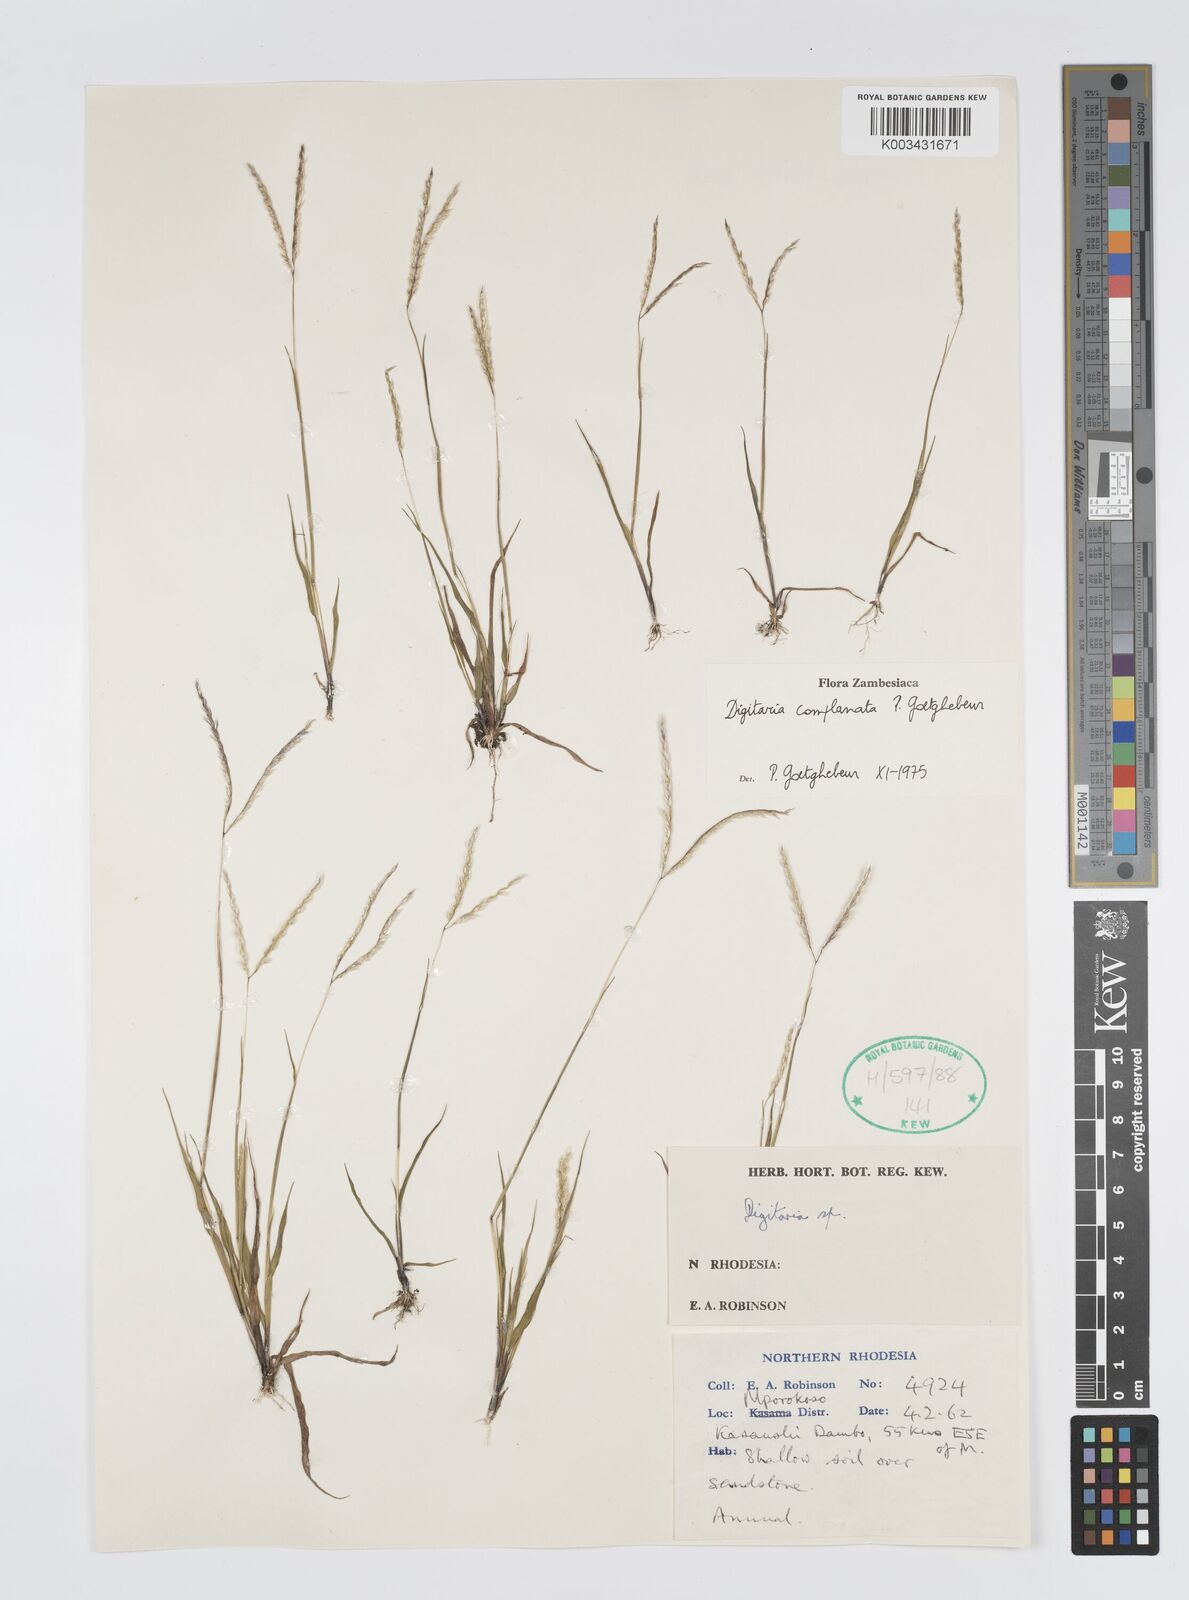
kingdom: Plantae
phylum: Tracheophyta
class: Liliopsida
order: Poales
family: Poaceae
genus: Digitaria
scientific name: Digitaria complanata
